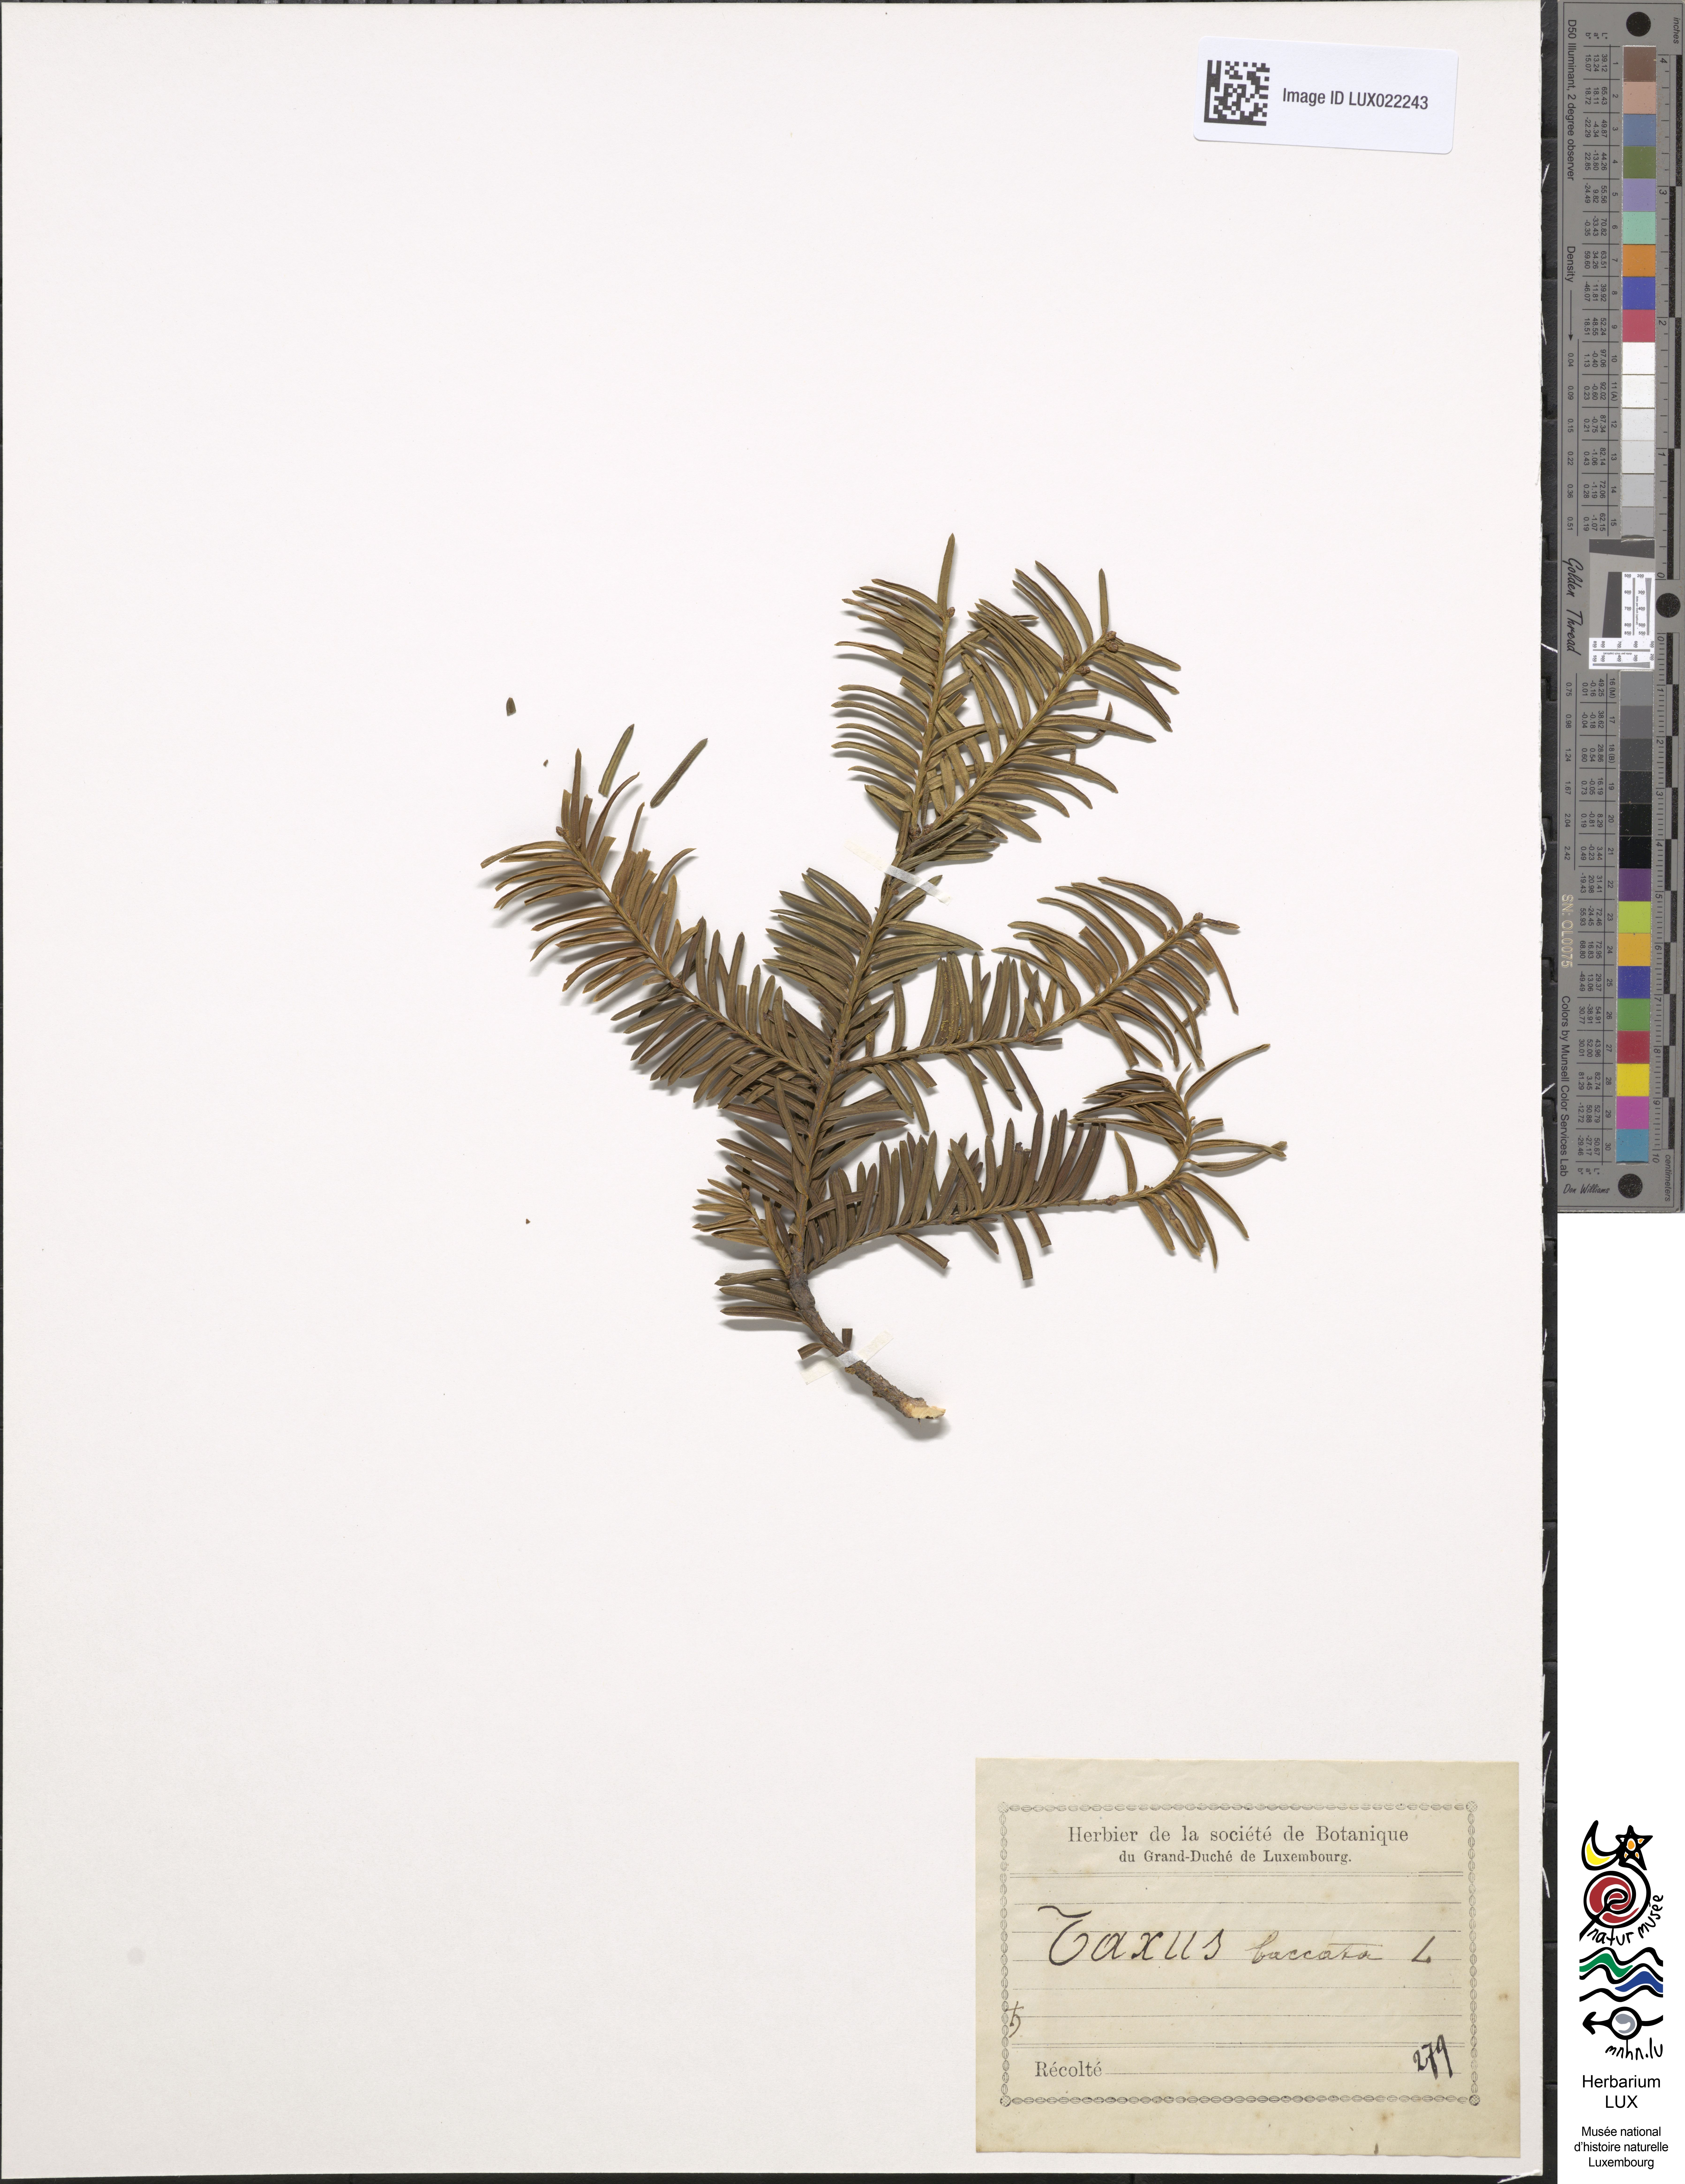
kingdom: Plantae
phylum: Tracheophyta
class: Pinopsida
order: Pinales
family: Taxaceae
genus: Taxus
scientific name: Taxus baccata
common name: Yew
